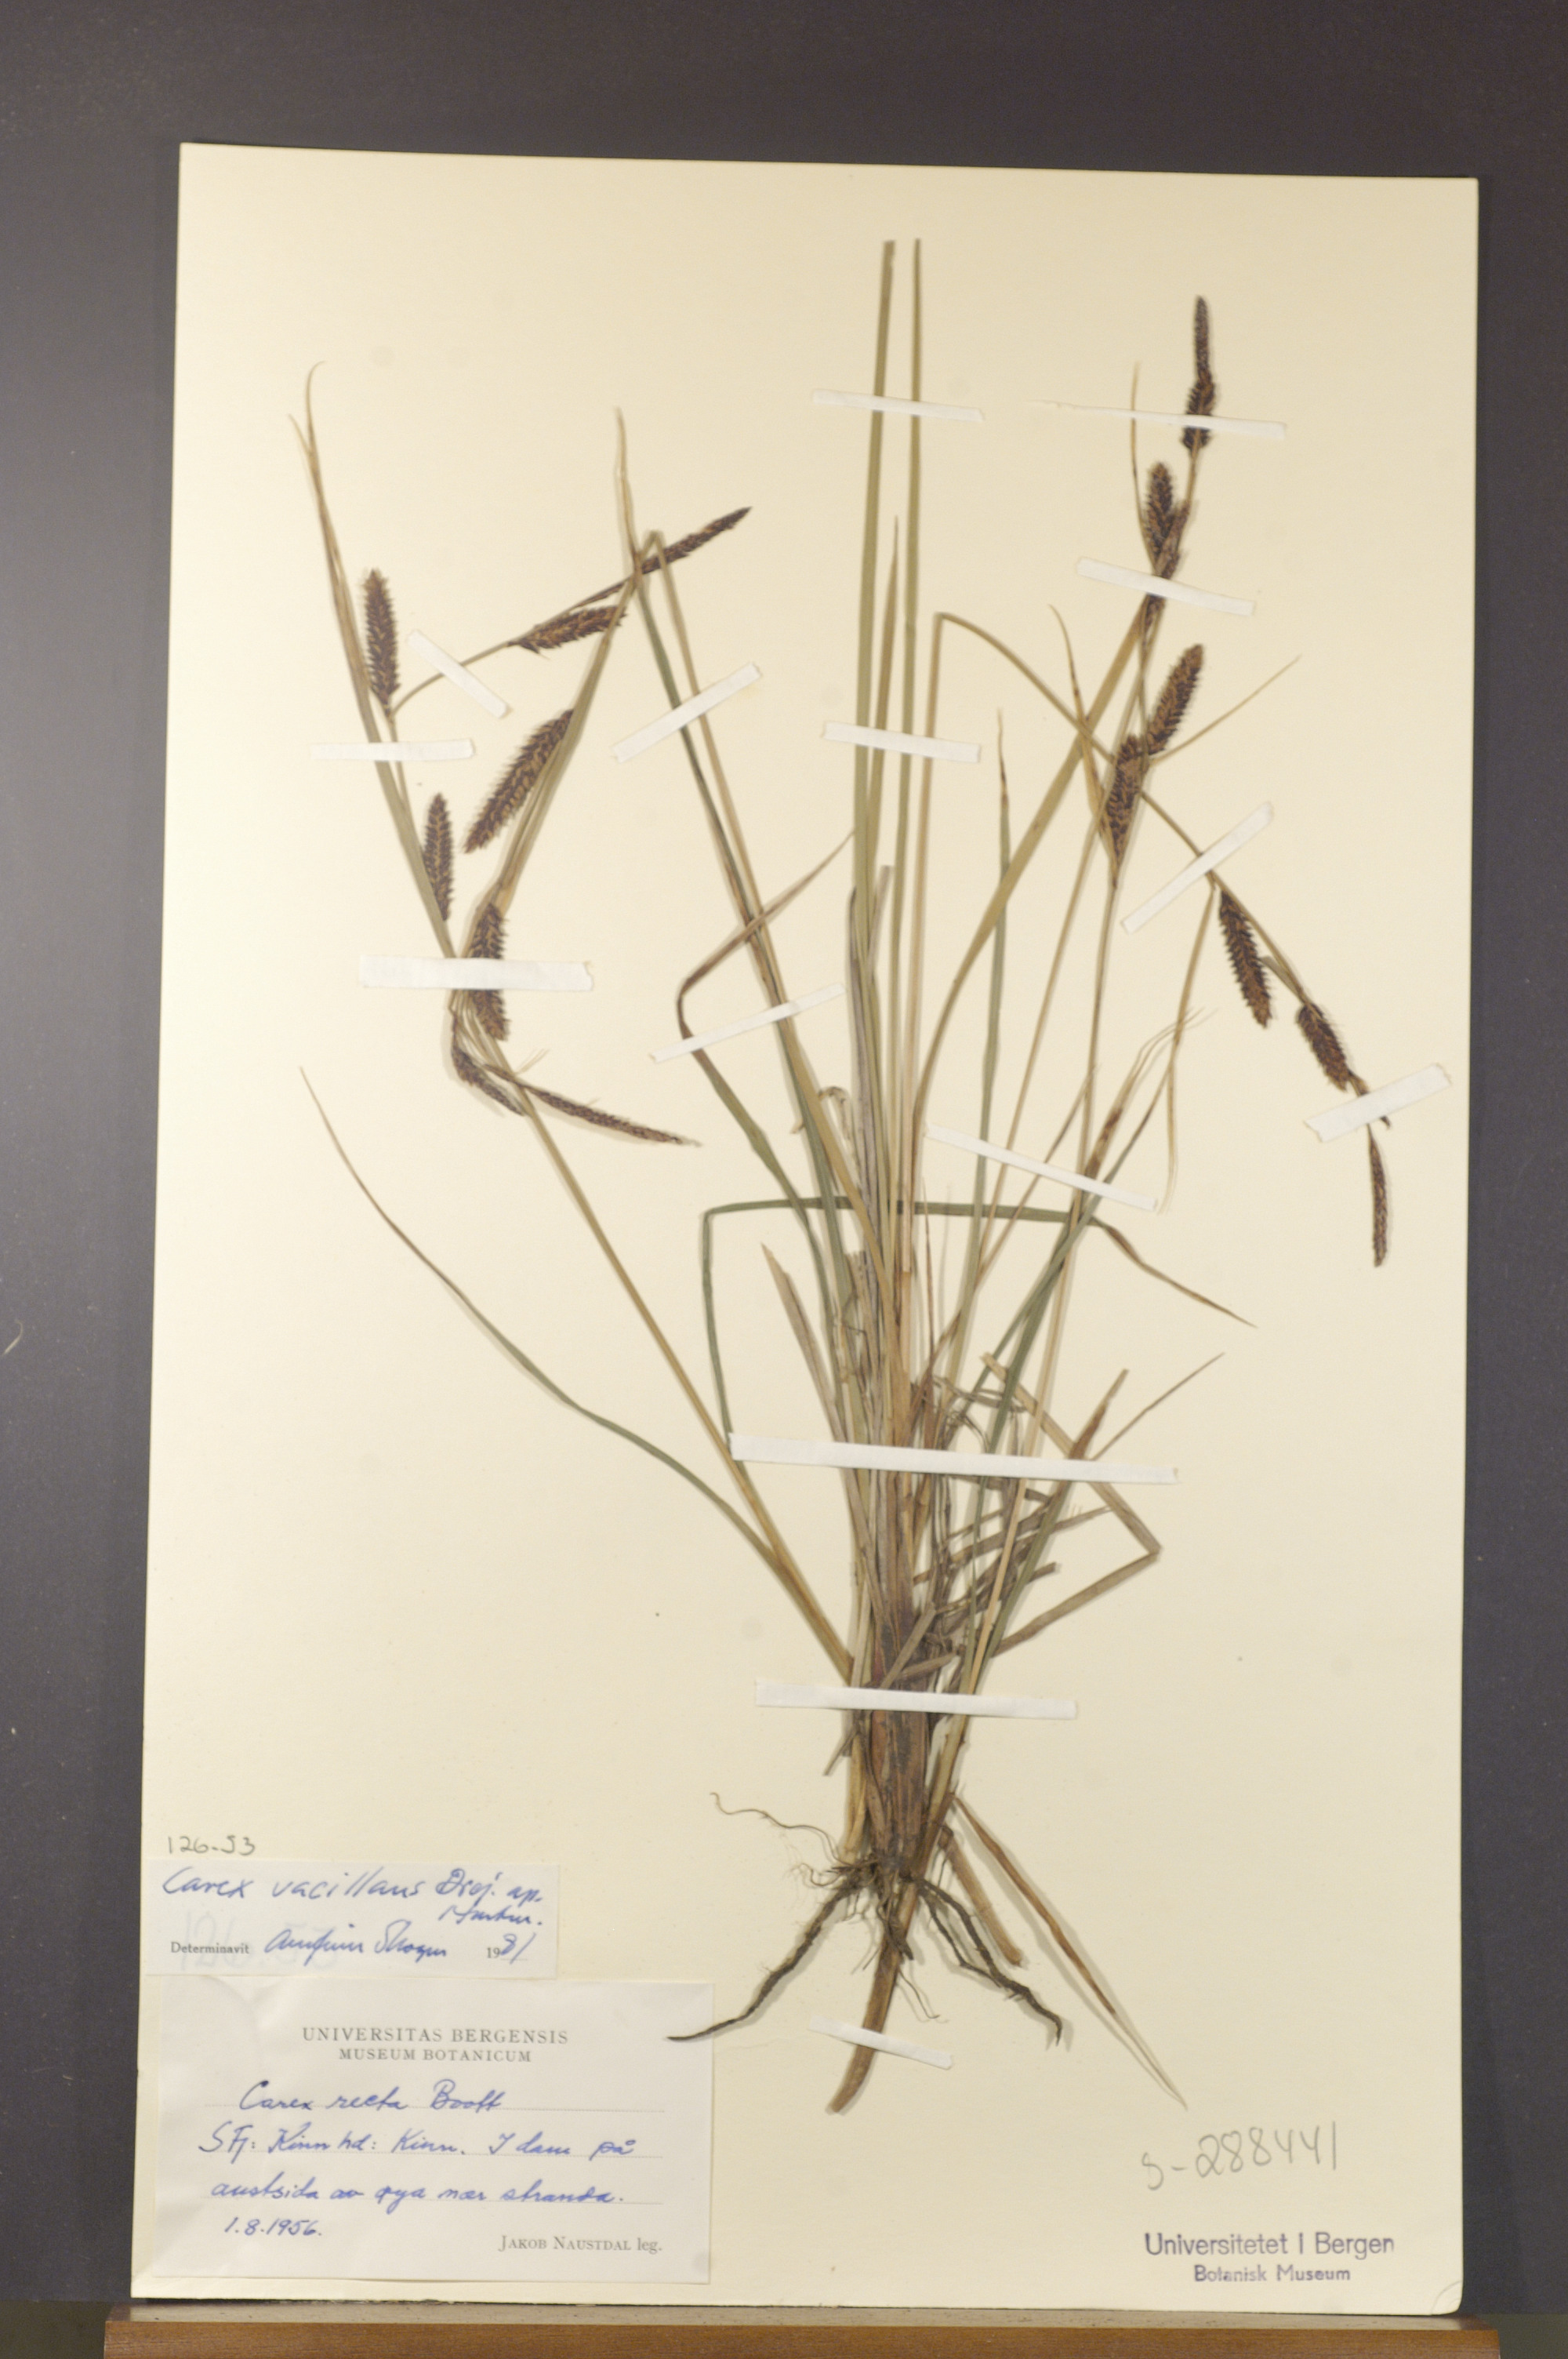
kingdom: Plantae
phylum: Tracheophyta
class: Liliopsida
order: Poales
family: Cyperaceae
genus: Carex
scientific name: Carex vacillans
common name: Sedge
